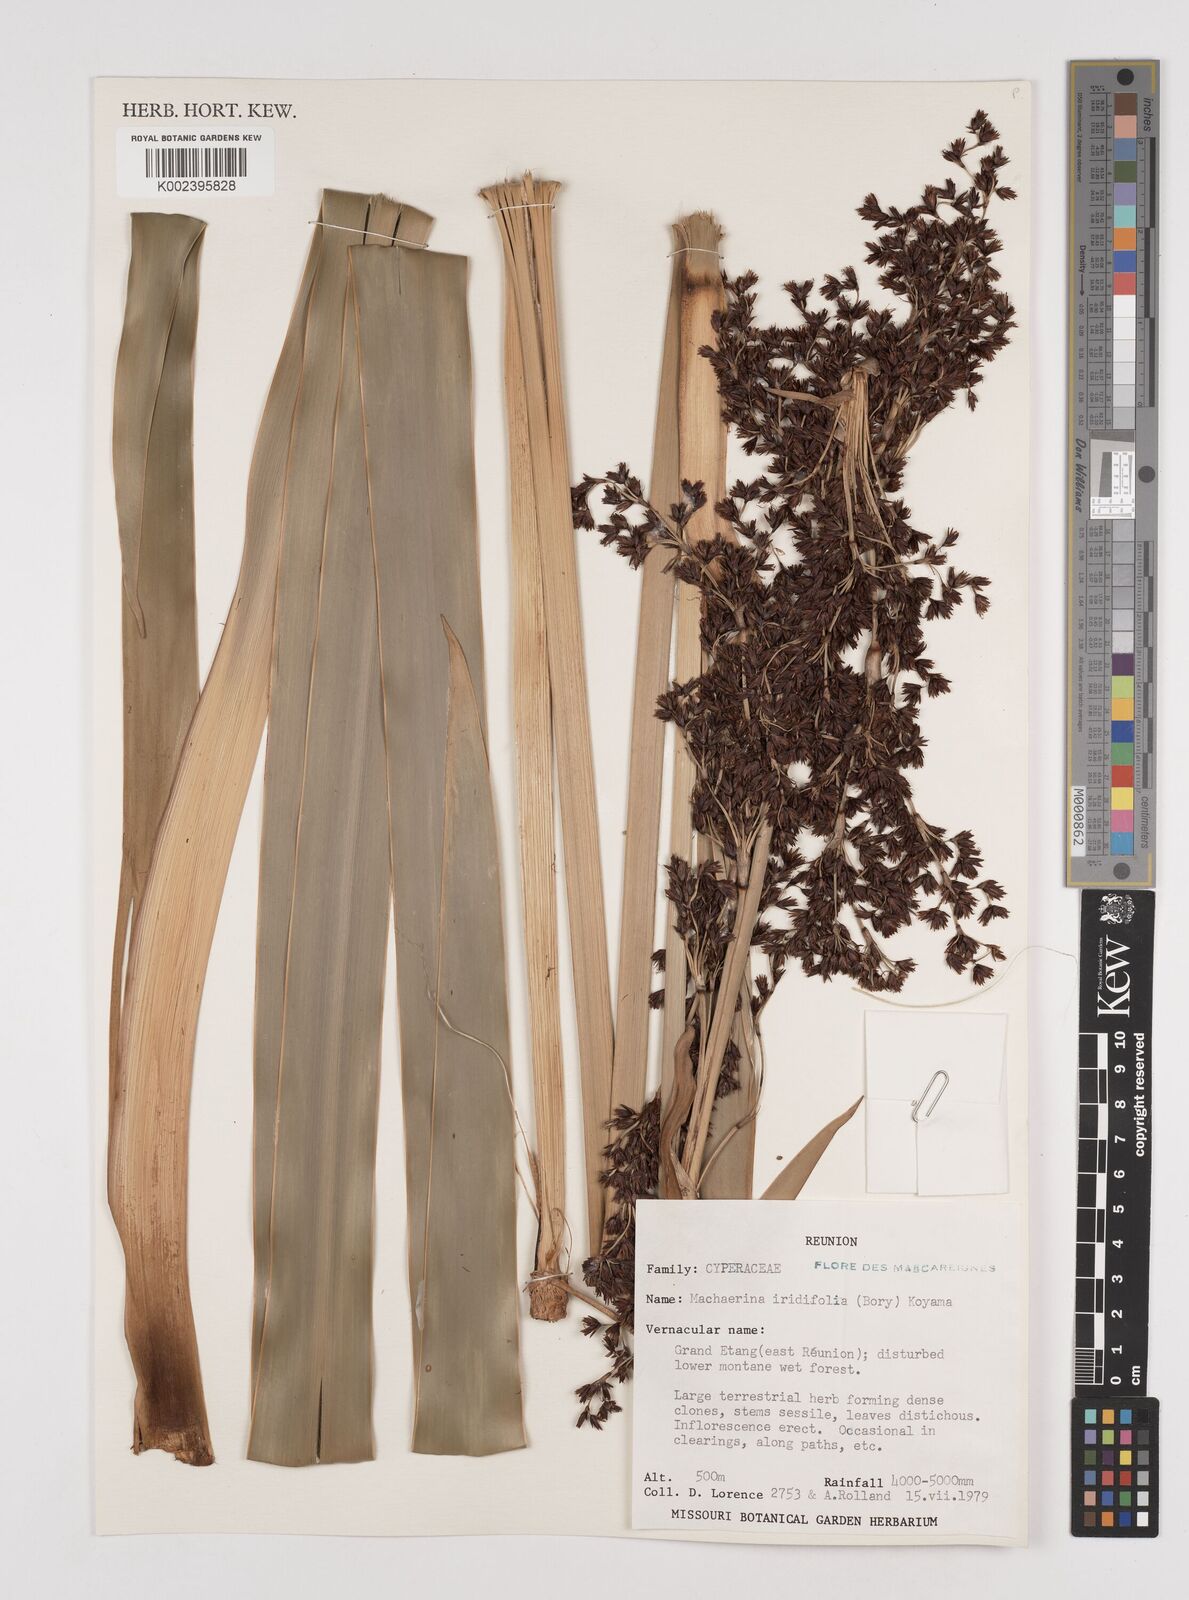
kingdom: Plantae
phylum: Tracheophyta
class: Liliopsida
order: Poales
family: Cyperaceae
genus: Machaerina
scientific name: Machaerina iridifolia
